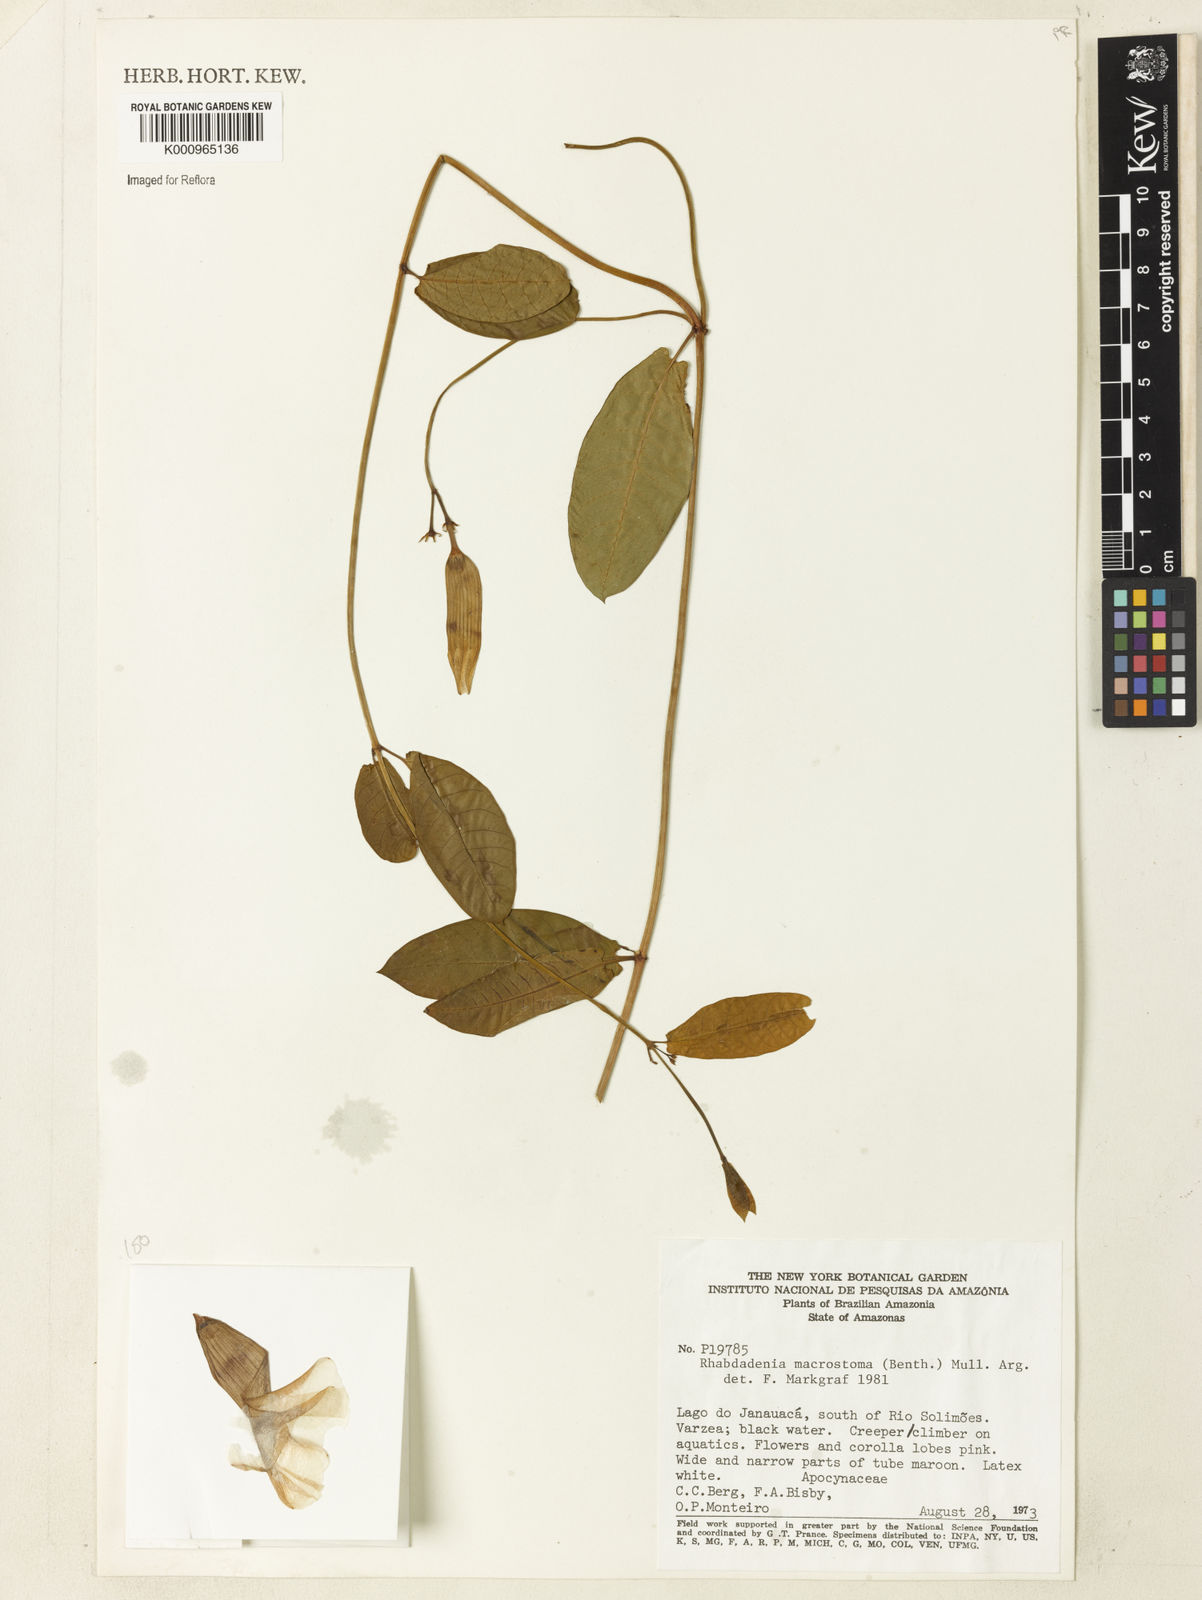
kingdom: Plantae
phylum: Tracheophyta
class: Magnoliopsida
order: Gentianales
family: Apocynaceae
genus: Rhabdadenia
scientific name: Rhabdadenia madida
